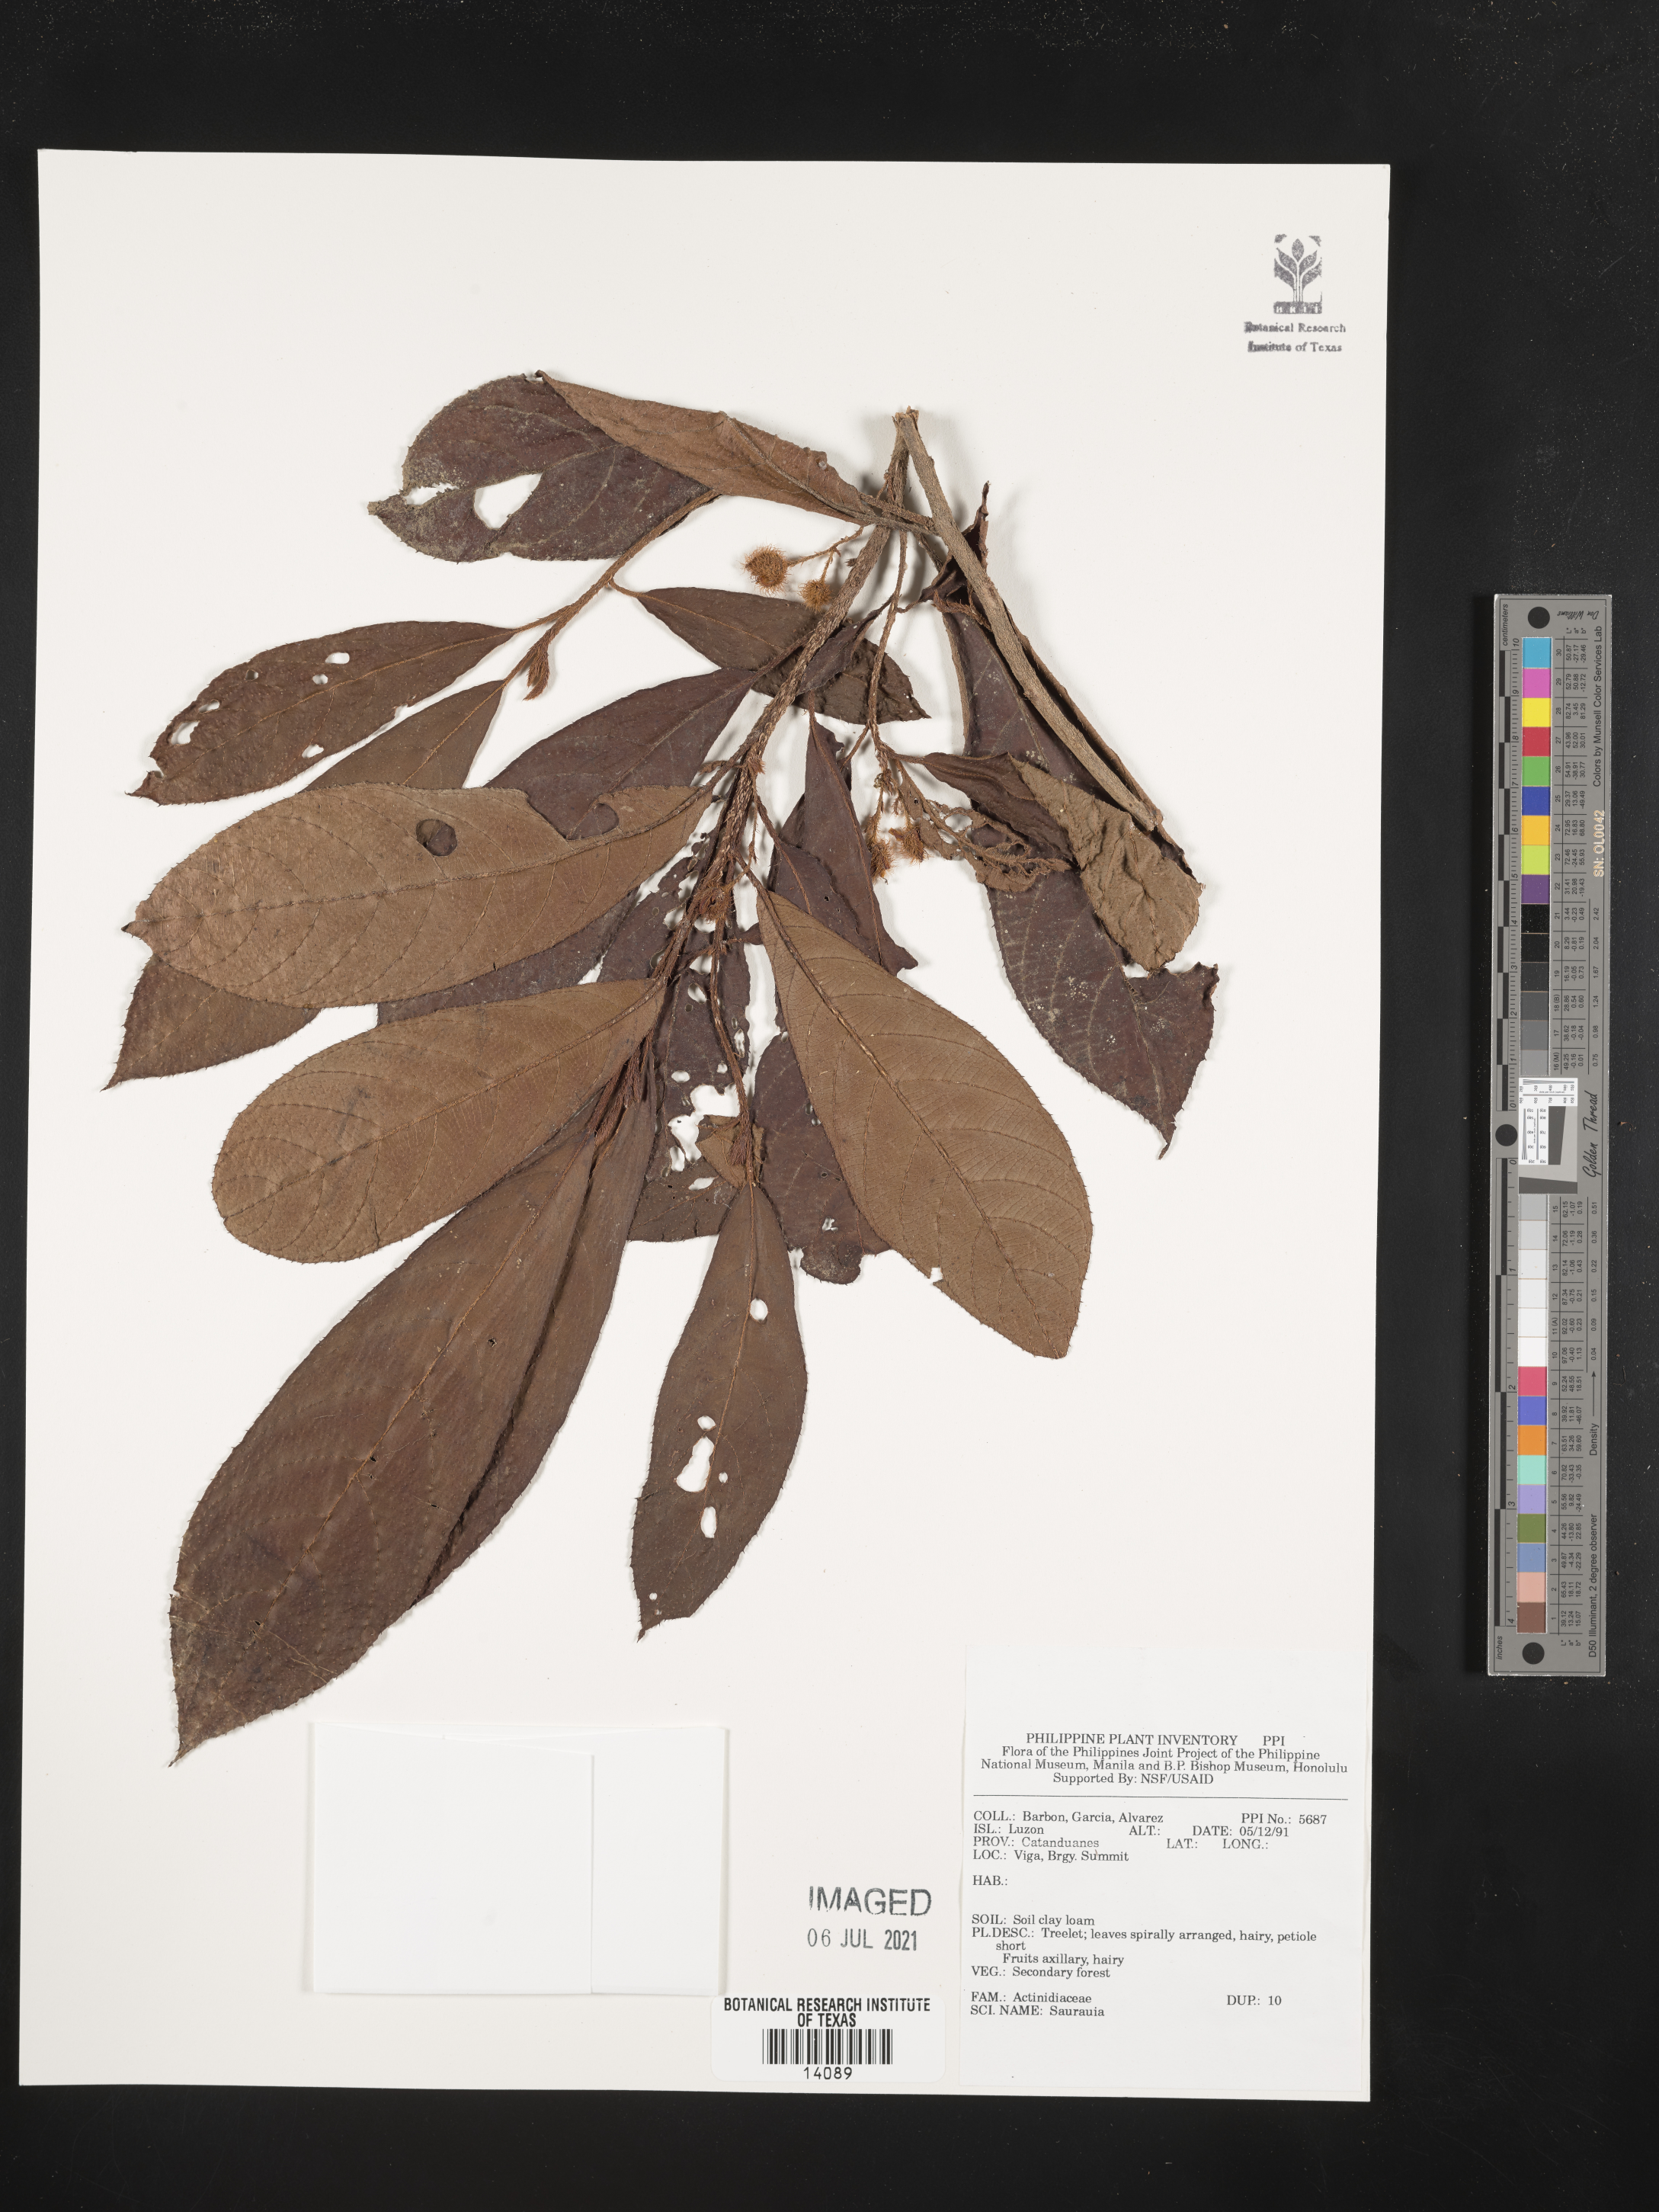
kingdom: Plantae
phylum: Tracheophyta
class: Magnoliopsida
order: Ericales
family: Actinidiaceae
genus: Saurauia
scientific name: Saurauia
